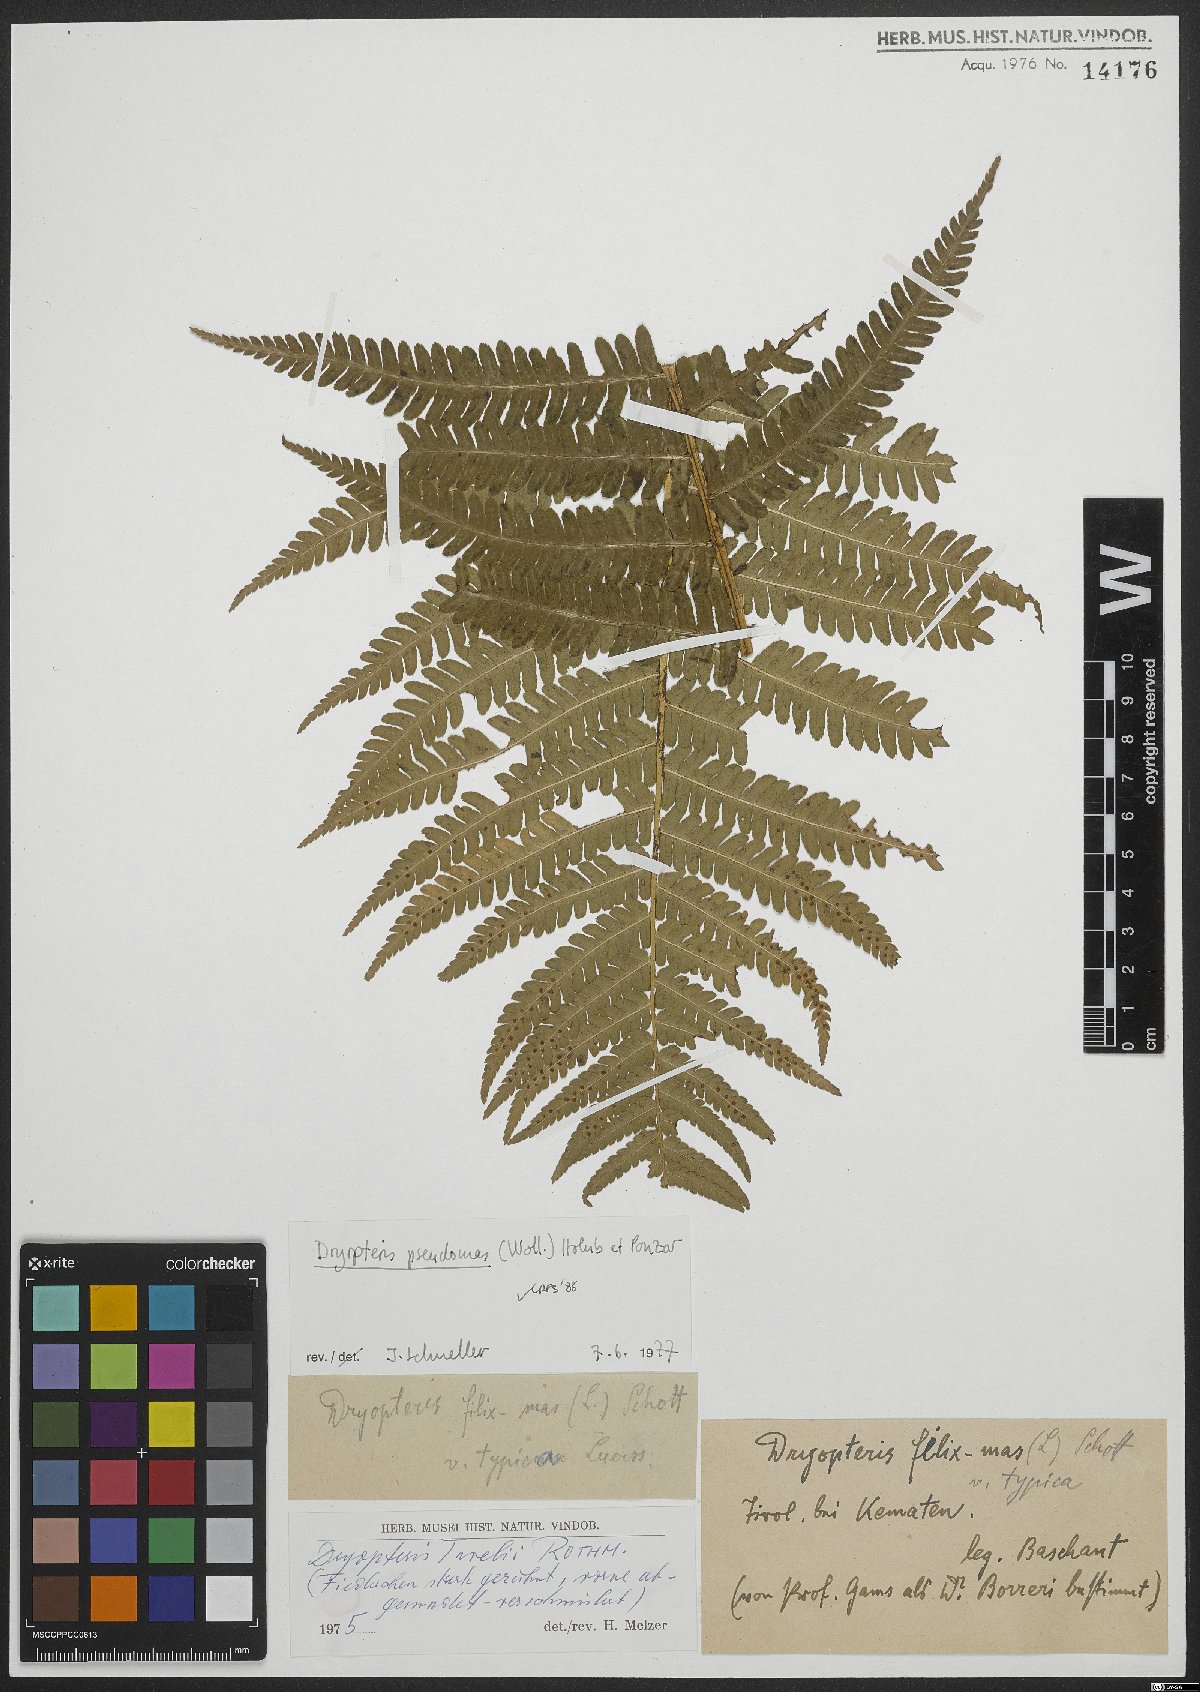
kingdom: Plantae
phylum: Tracheophyta
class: Polypodiopsida
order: Polypodiales
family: Dryopteridaceae
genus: Dryopteris
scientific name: Dryopteris borreri
